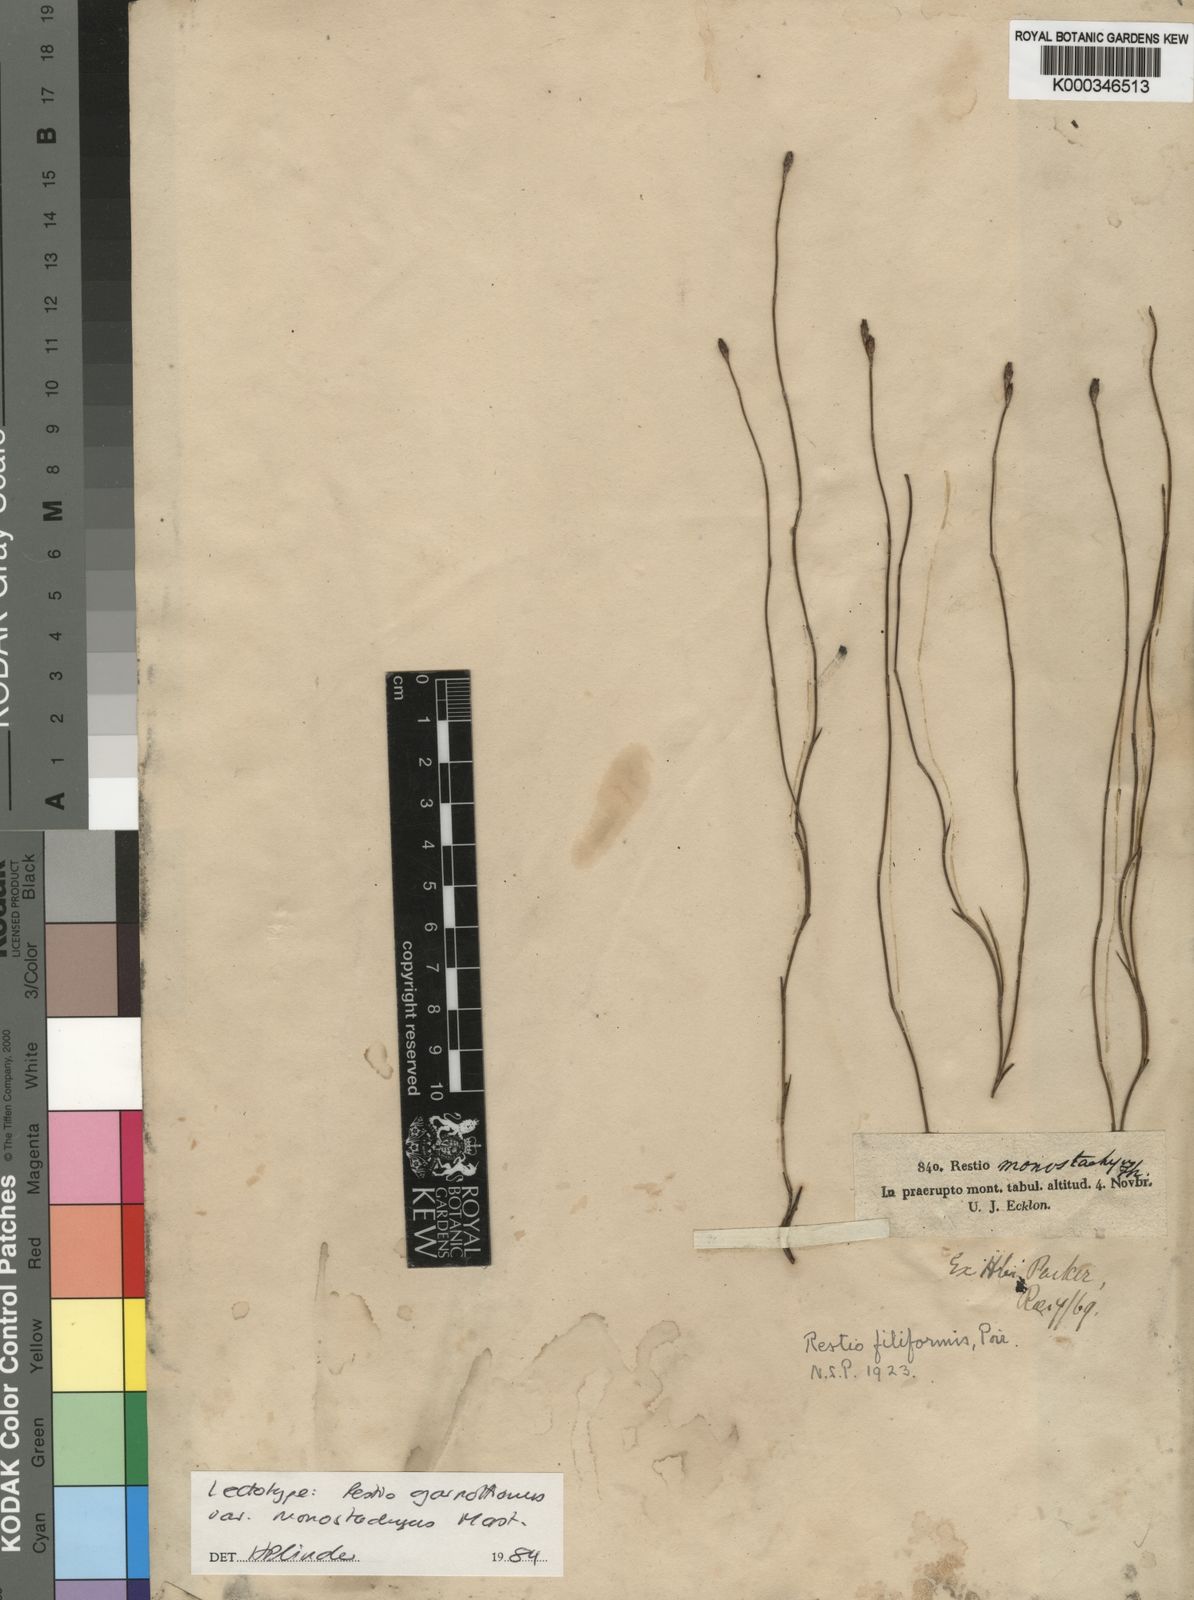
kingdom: Plantae
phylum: Tracheophyta
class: Liliopsida
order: Poales
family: Restionaceae
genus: Restio
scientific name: Restio filiformis
